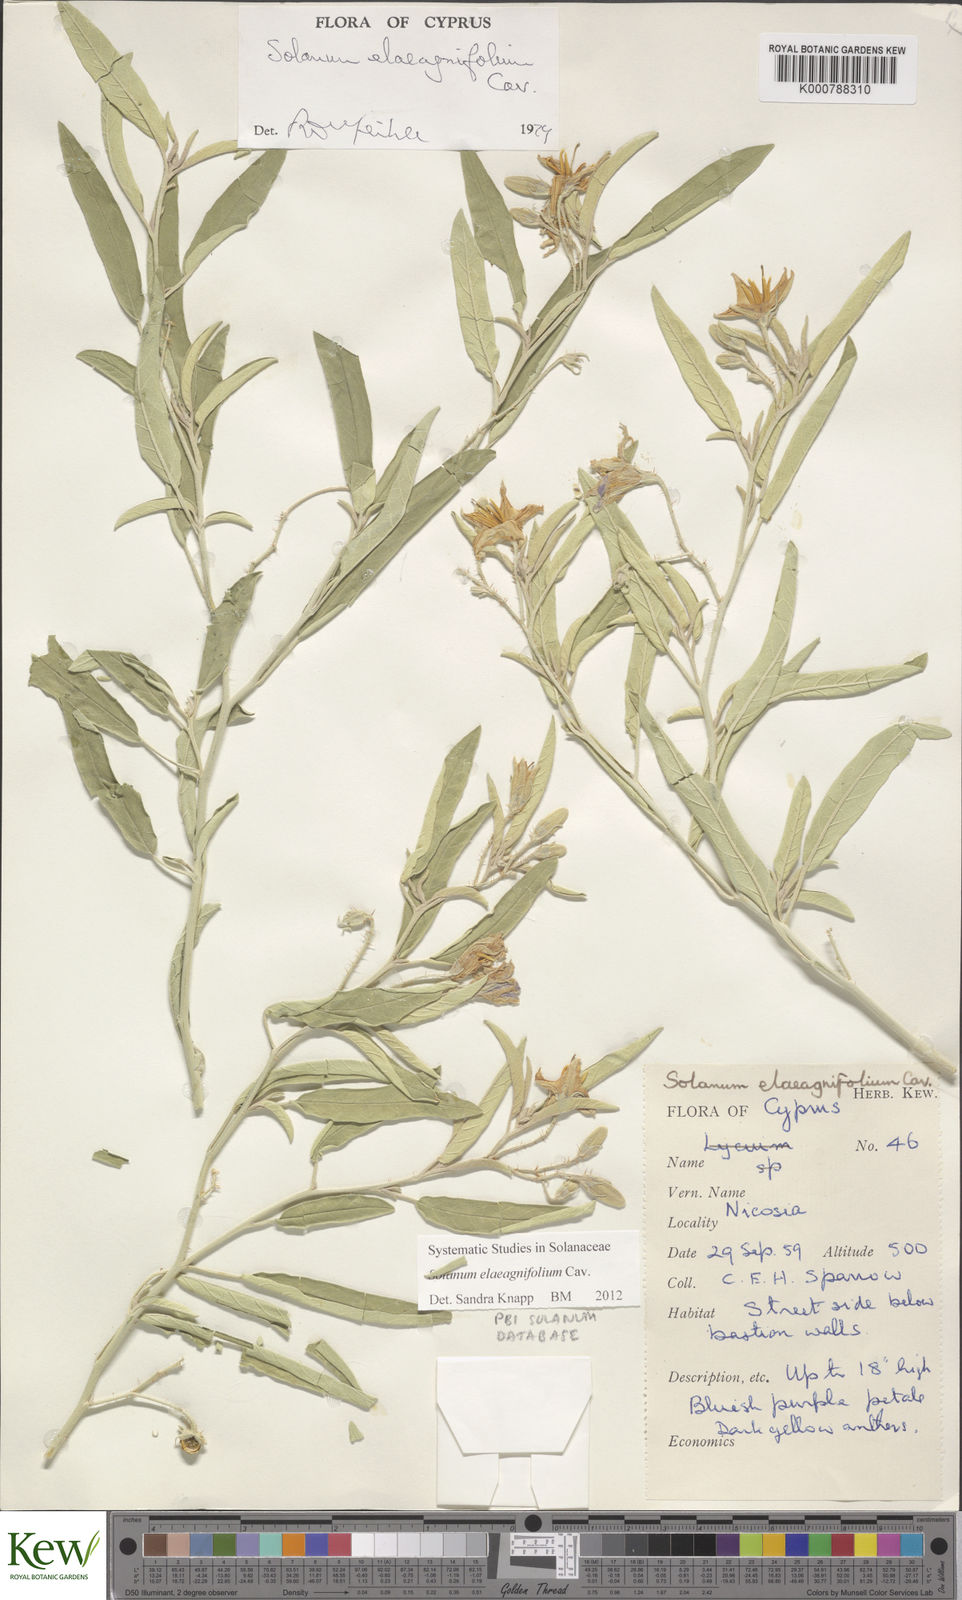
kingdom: Plantae
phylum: Tracheophyta
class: Magnoliopsida
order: Solanales
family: Solanaceae
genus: Solanum
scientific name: Solanum elaeagnifolium
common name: Silverleaf nightshade
